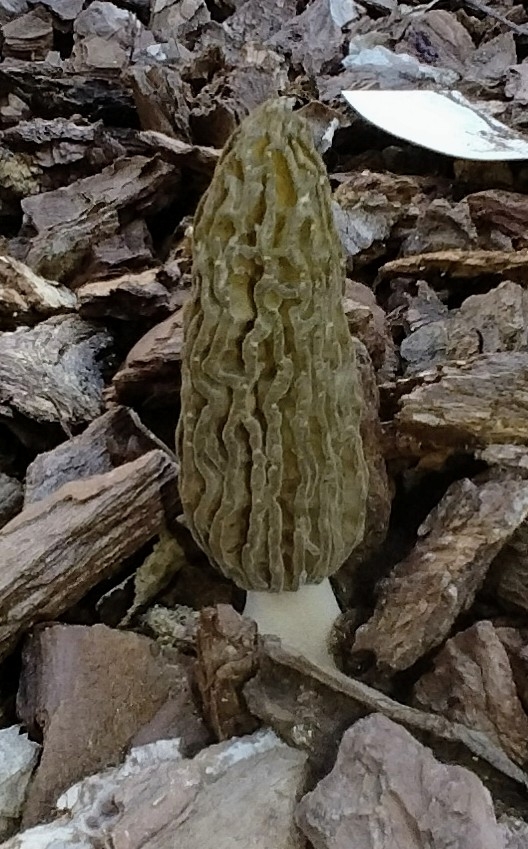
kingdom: Fungi
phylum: Ascomycota
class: Pezizomycetes
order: Pezizales
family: Morchellaceae
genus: Morchella
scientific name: Morchella importuna
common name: Landscaping black morel
